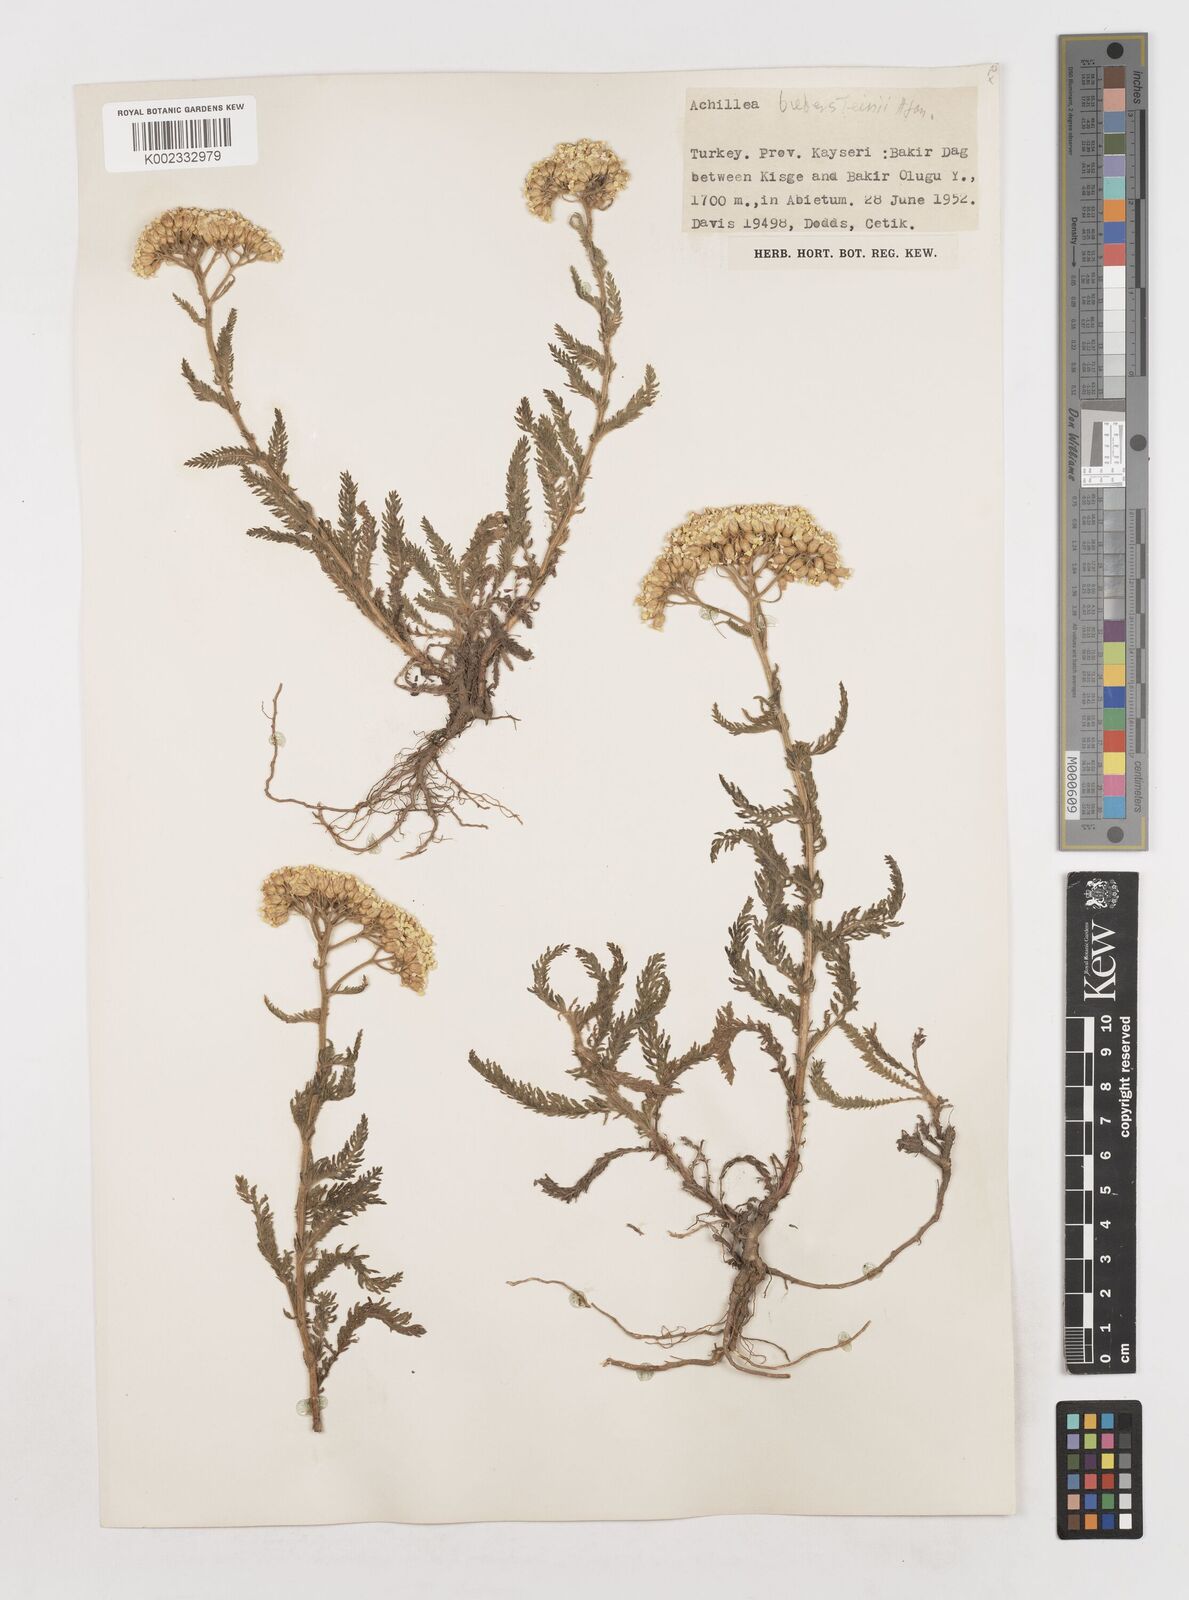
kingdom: Plantae
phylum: Tracheophyta
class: Magnoliopsida
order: Asterales
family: Asteraceae
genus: Achillea
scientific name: Achillea arabica
